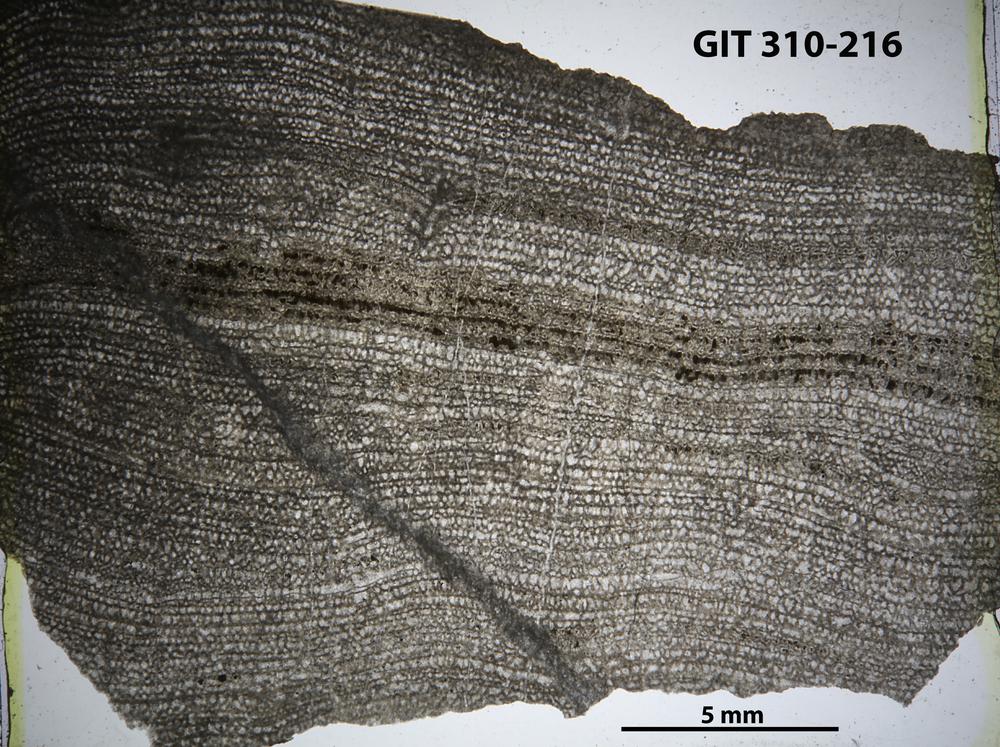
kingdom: Animalia
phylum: Porifera
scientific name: Porifera
